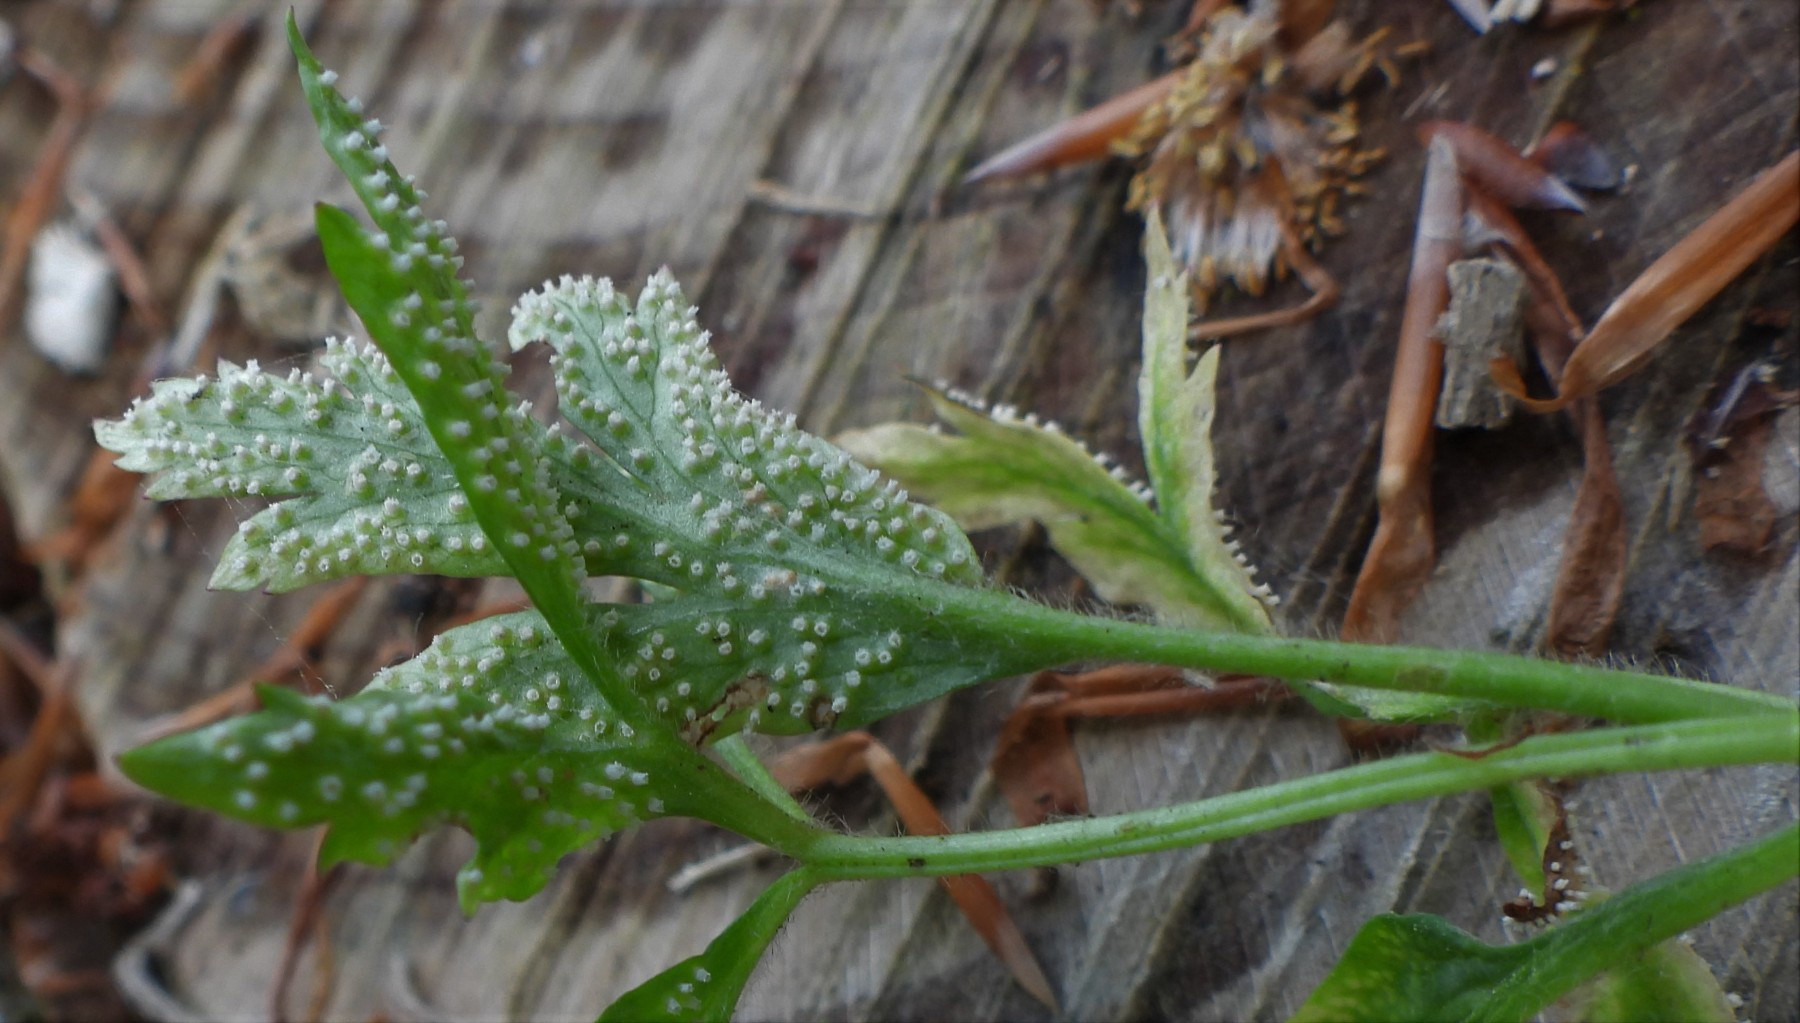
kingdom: Fungi
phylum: Basidiomycota
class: Pucciniomycetes
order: Pucciniales
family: Ochropsoraceae
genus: Ochropsora
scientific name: Ochropsora ariae
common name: anemone-okkerpletrust
